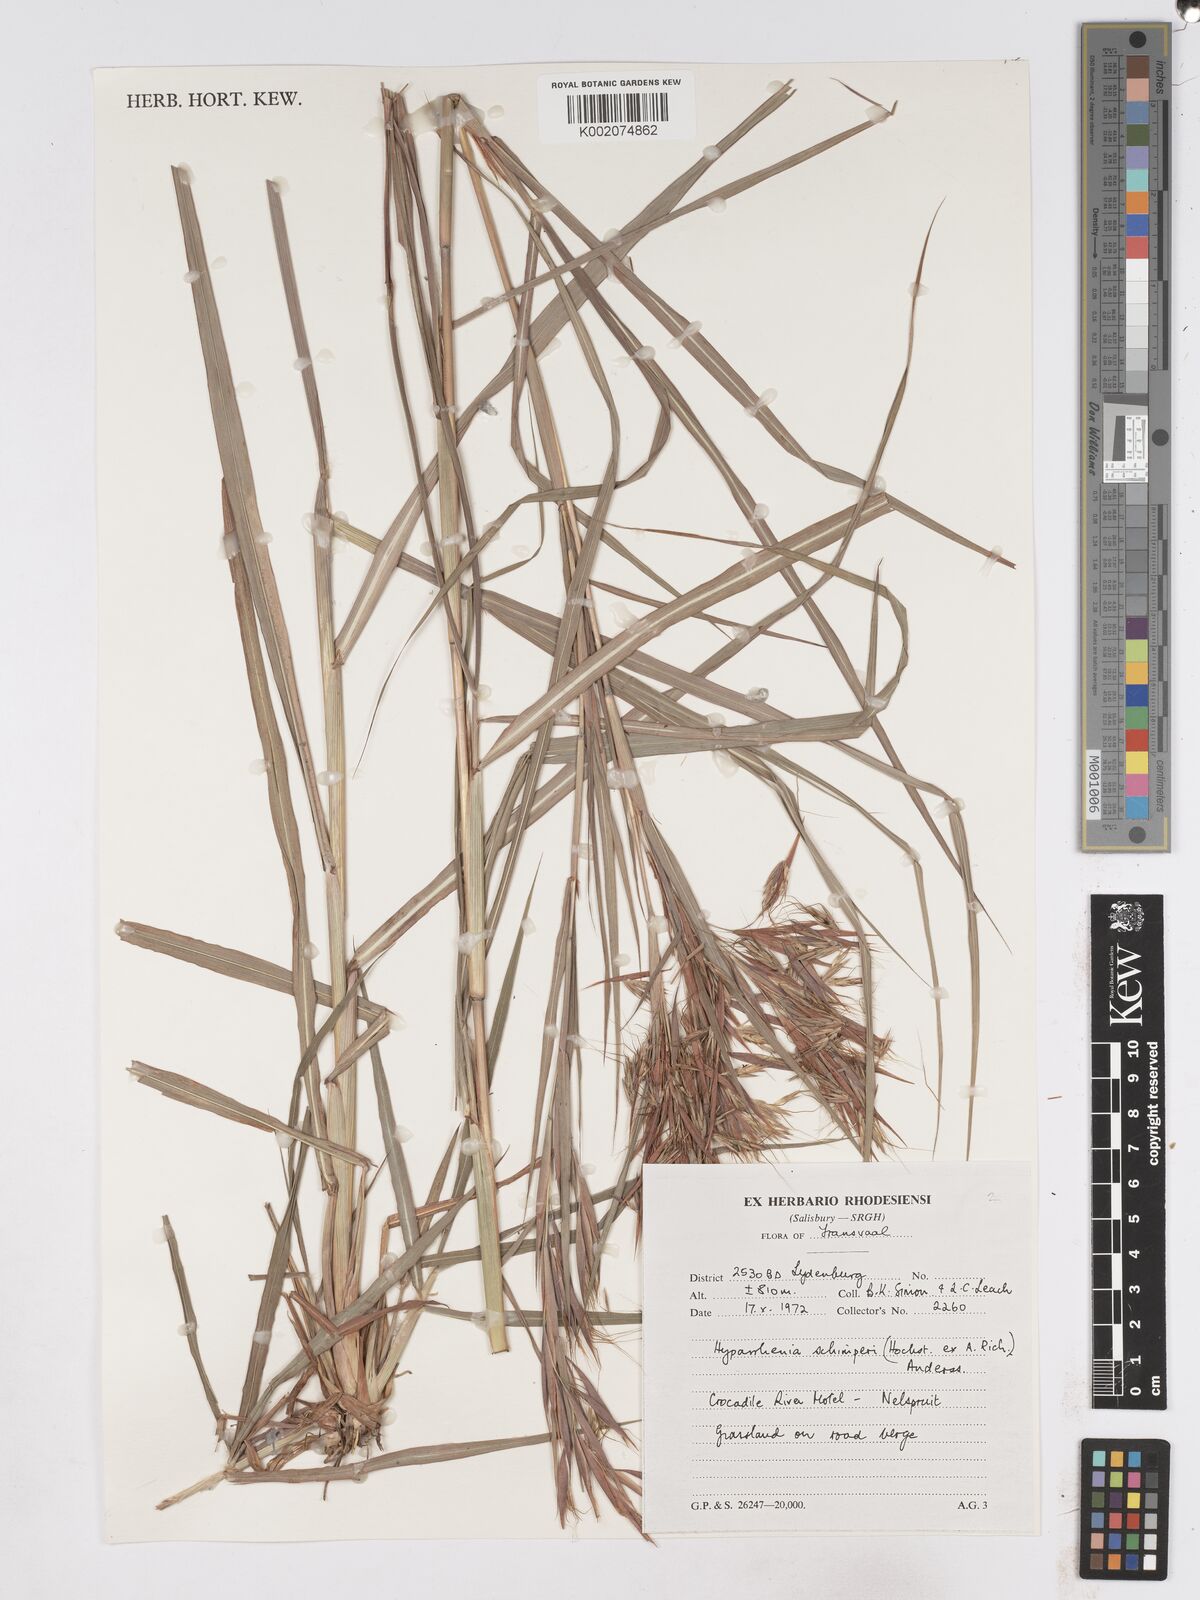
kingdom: Plantae
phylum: Tracheophyta
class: Liliopsida
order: Poales
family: Poaceae
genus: Hyparrhenia
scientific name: Hyparrhenia schimperi
